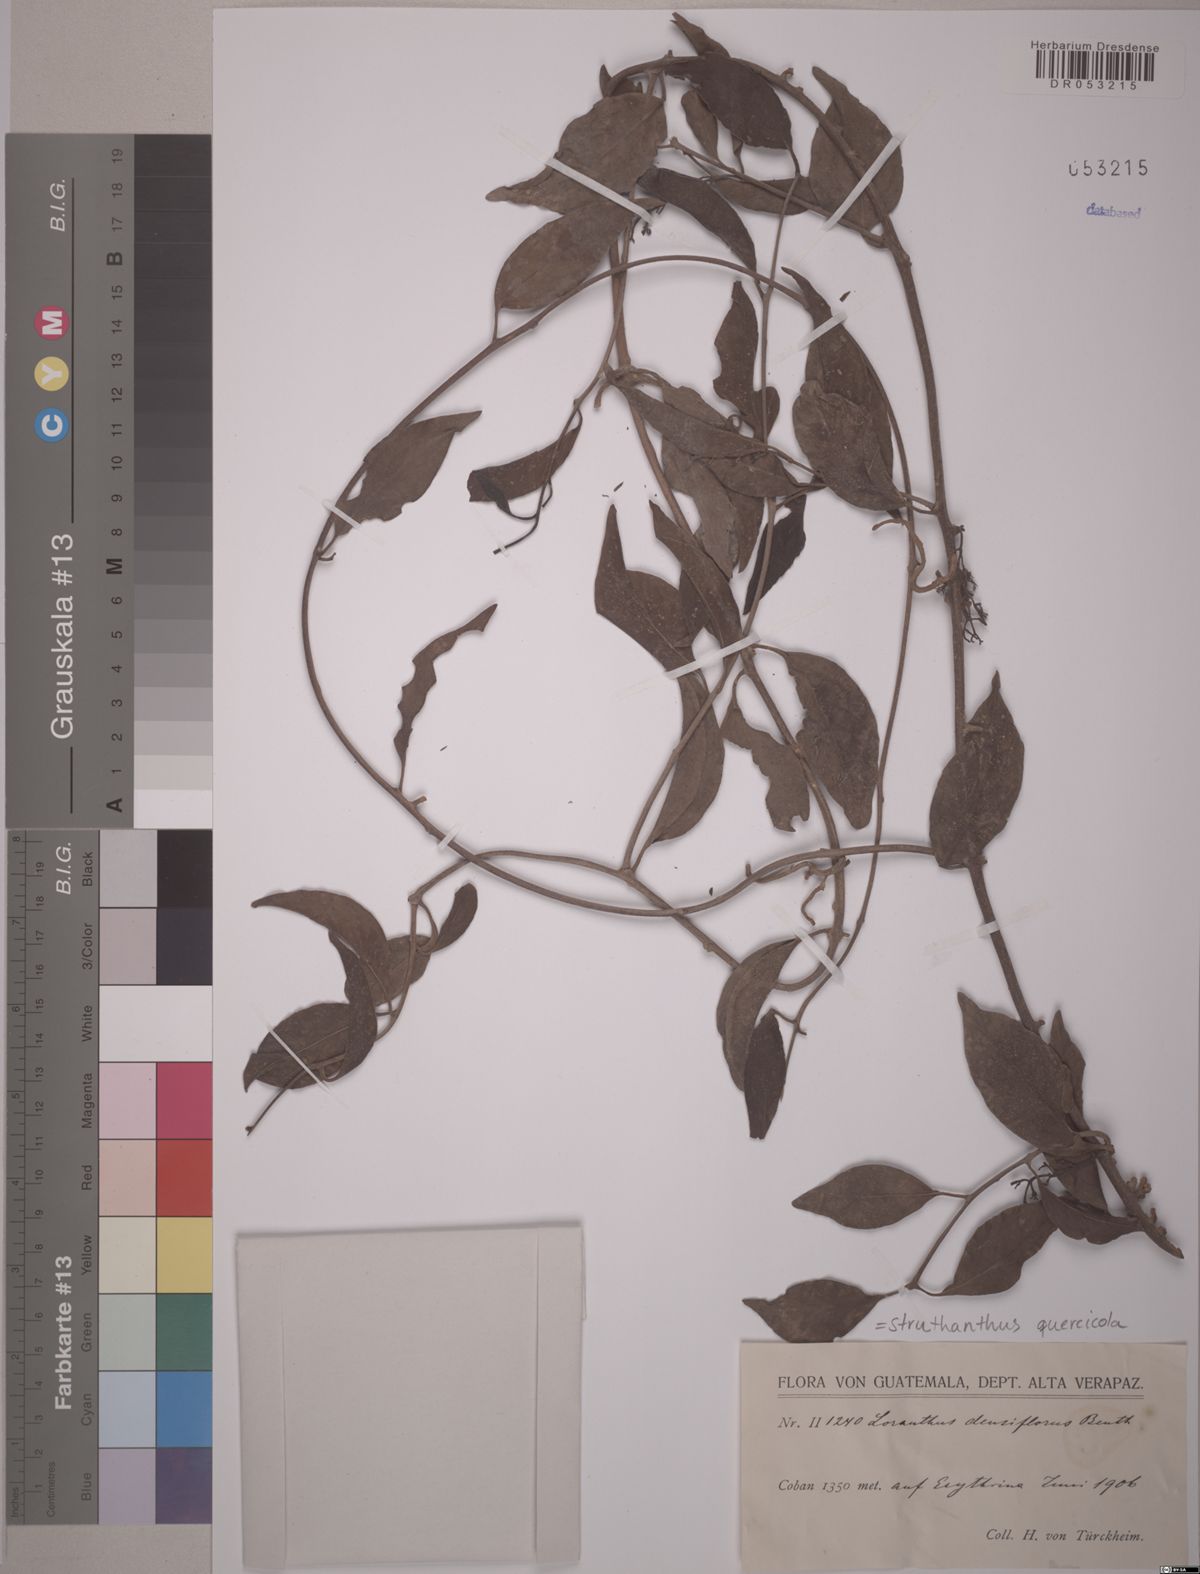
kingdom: Plantae
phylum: Tracheophyta
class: Magnoliopsida
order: Santalales
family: Loranthaceae
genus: Struthanthus
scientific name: Struthanthus quercicola
